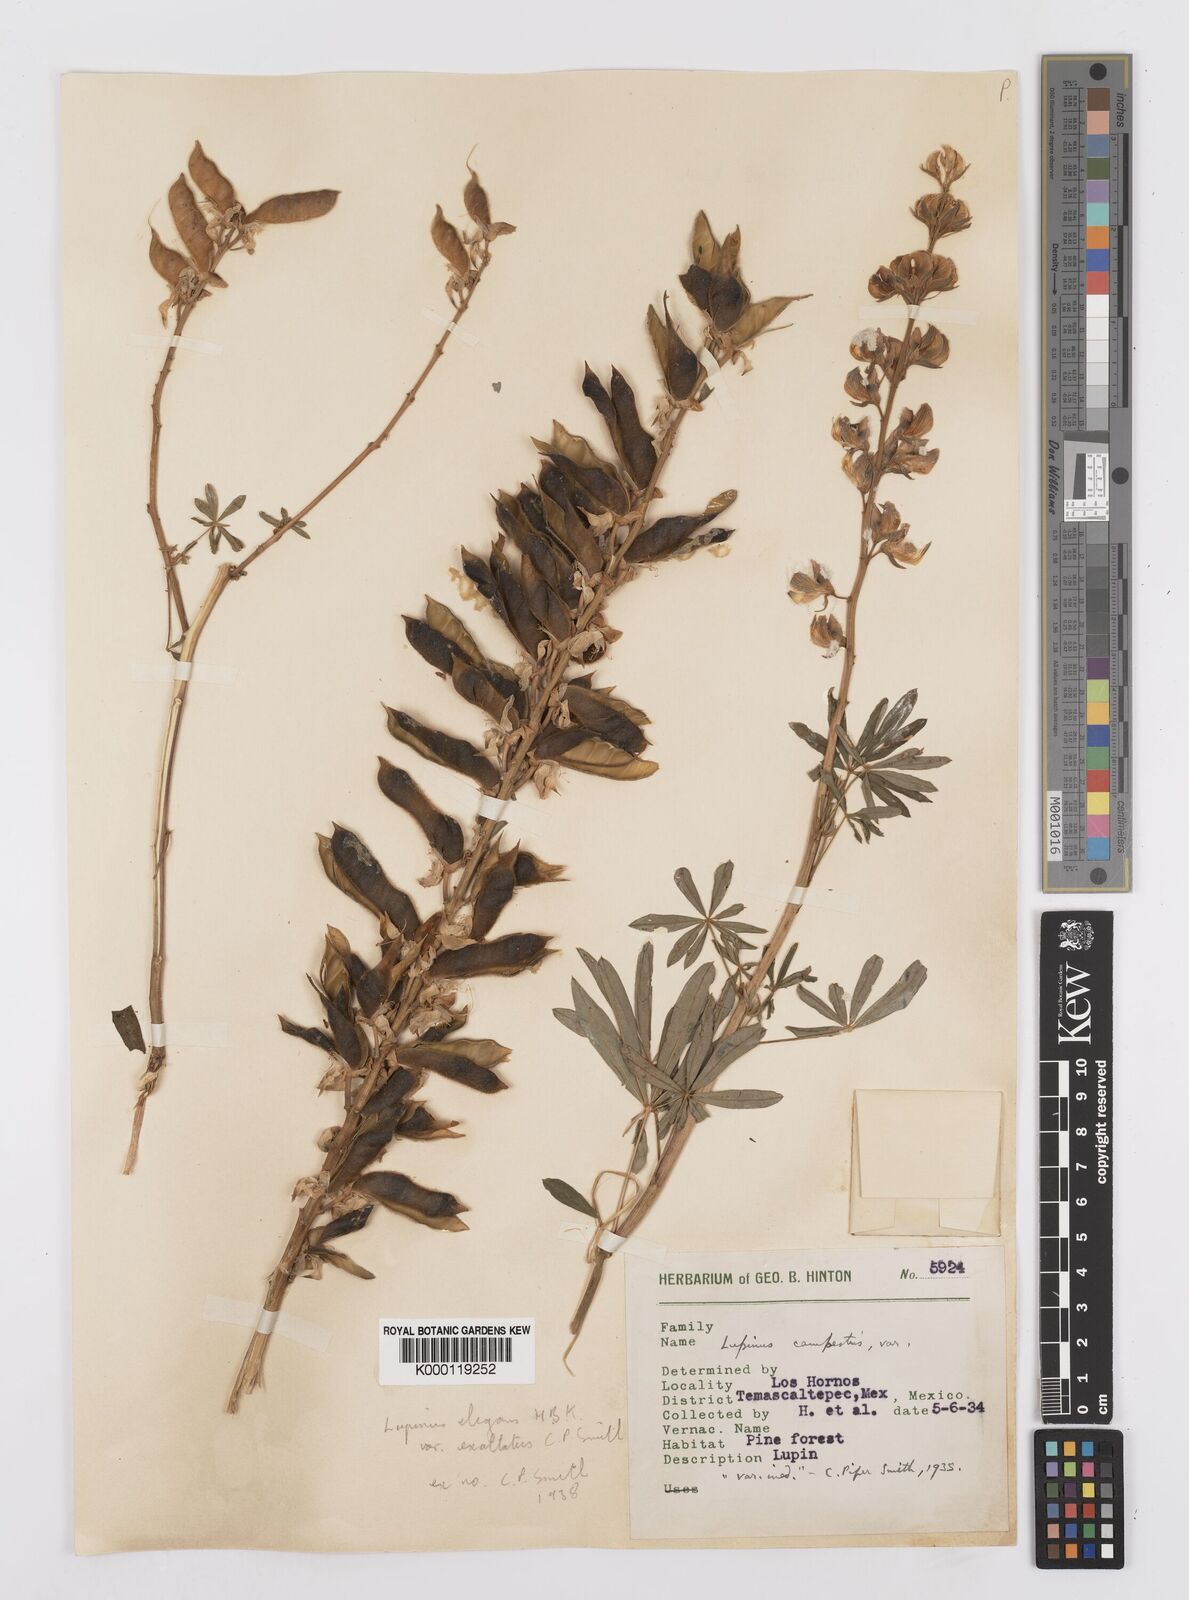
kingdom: Plantae
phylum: Tracheophyta
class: Magnoliopsida
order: Fabales
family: Fabaceae
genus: Lupinus
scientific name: Lupinus elegans
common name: Mexican lupine
